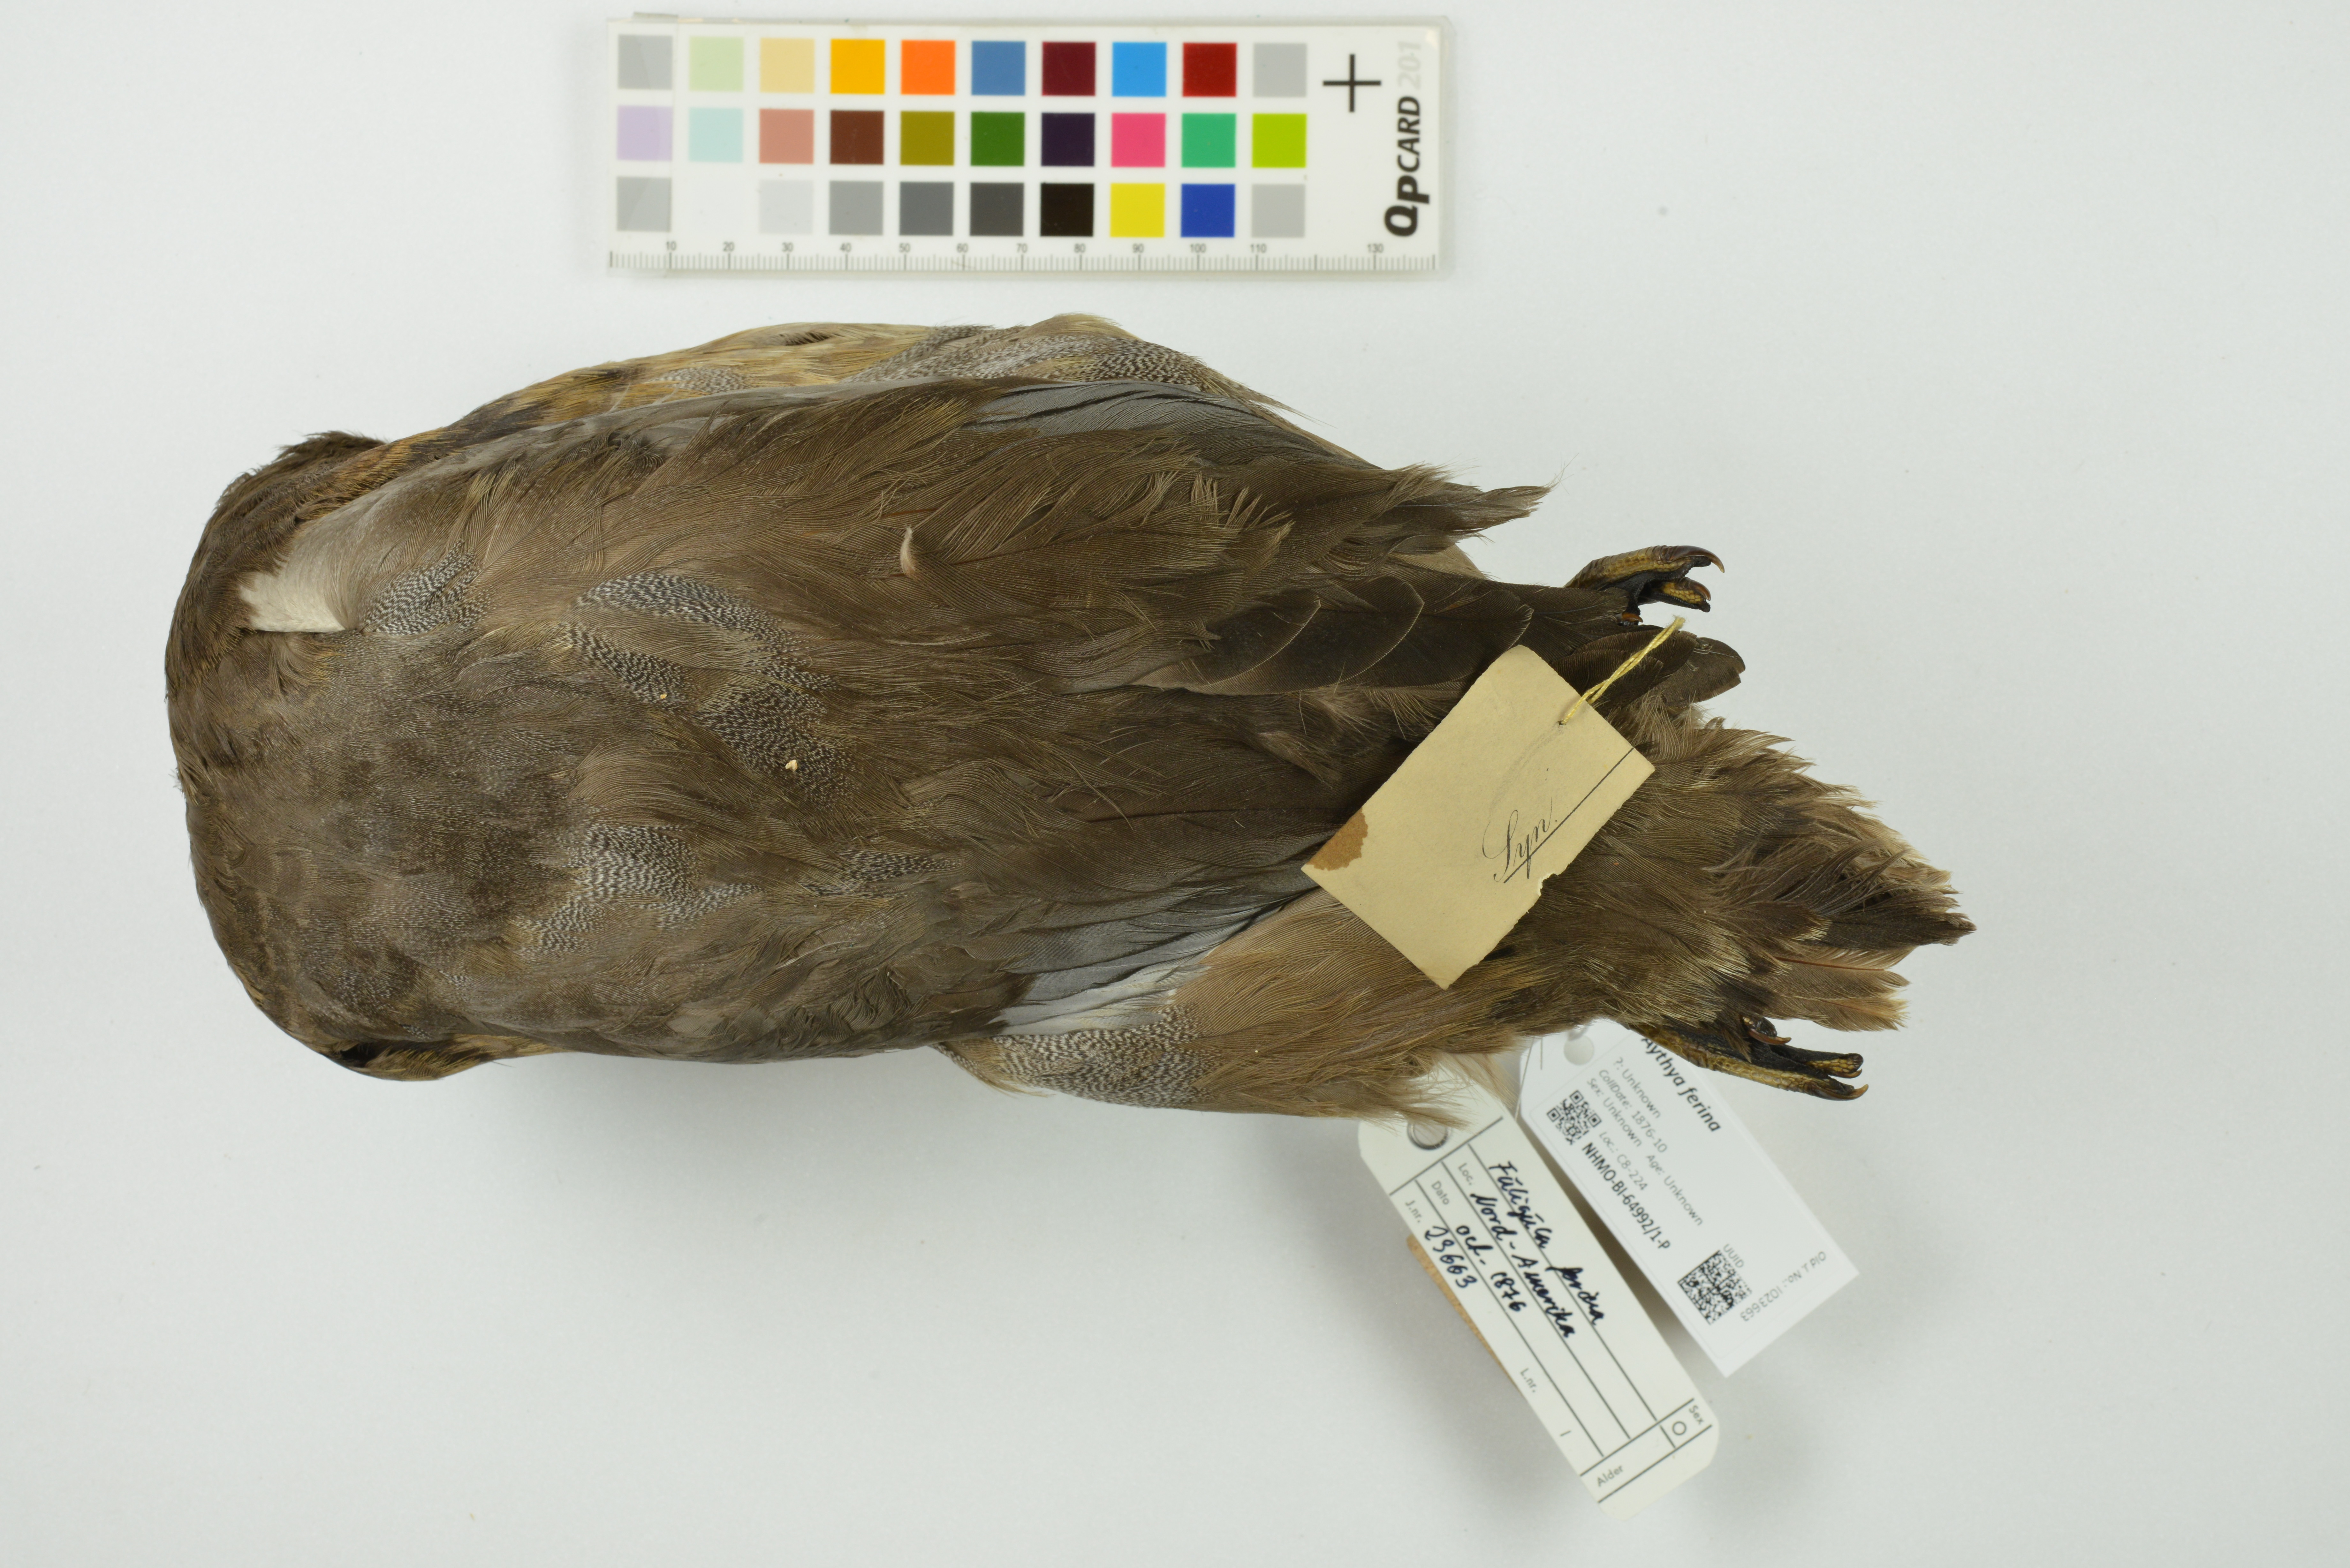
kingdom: Animalia
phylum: Chordata
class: Aves
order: Anseriformes
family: Anatidae
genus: Aythya
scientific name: Aythya ferina
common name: Common pochard
